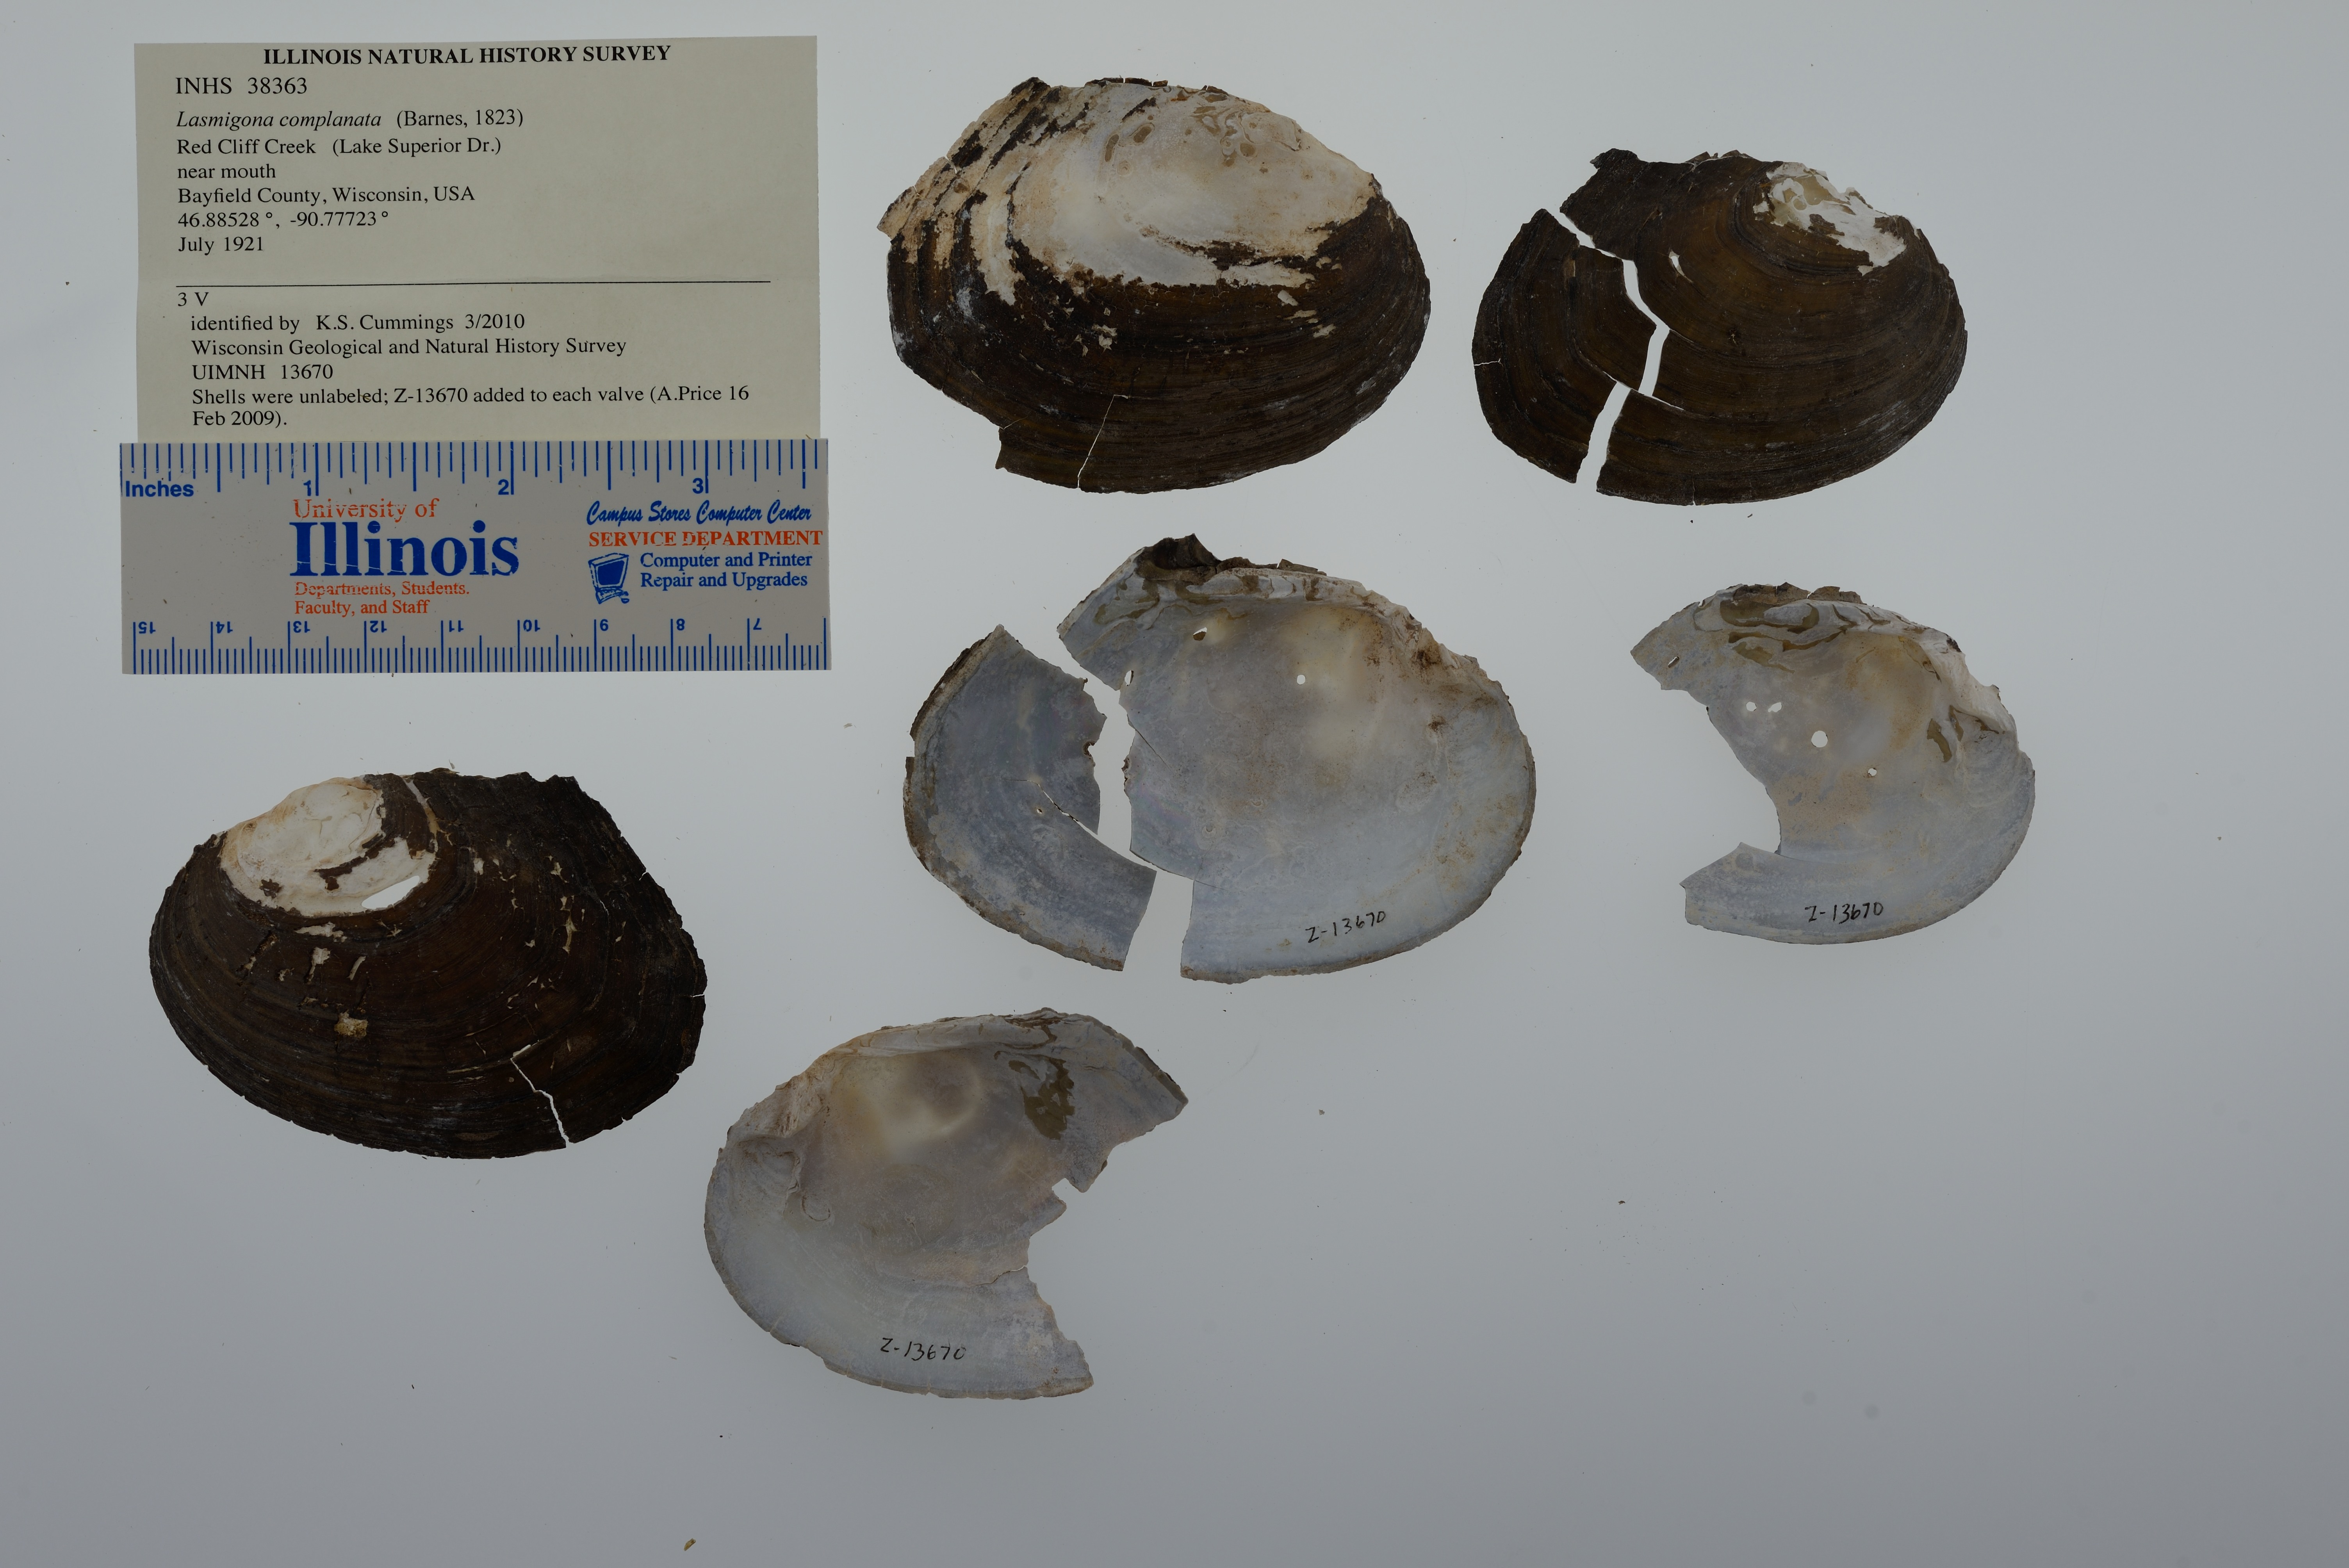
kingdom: Animalia
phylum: Mollusca
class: Bivalvia
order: Unionida
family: Unionidae
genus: Lasmigona
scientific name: Lasmigona complanata
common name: White heelsplitter
